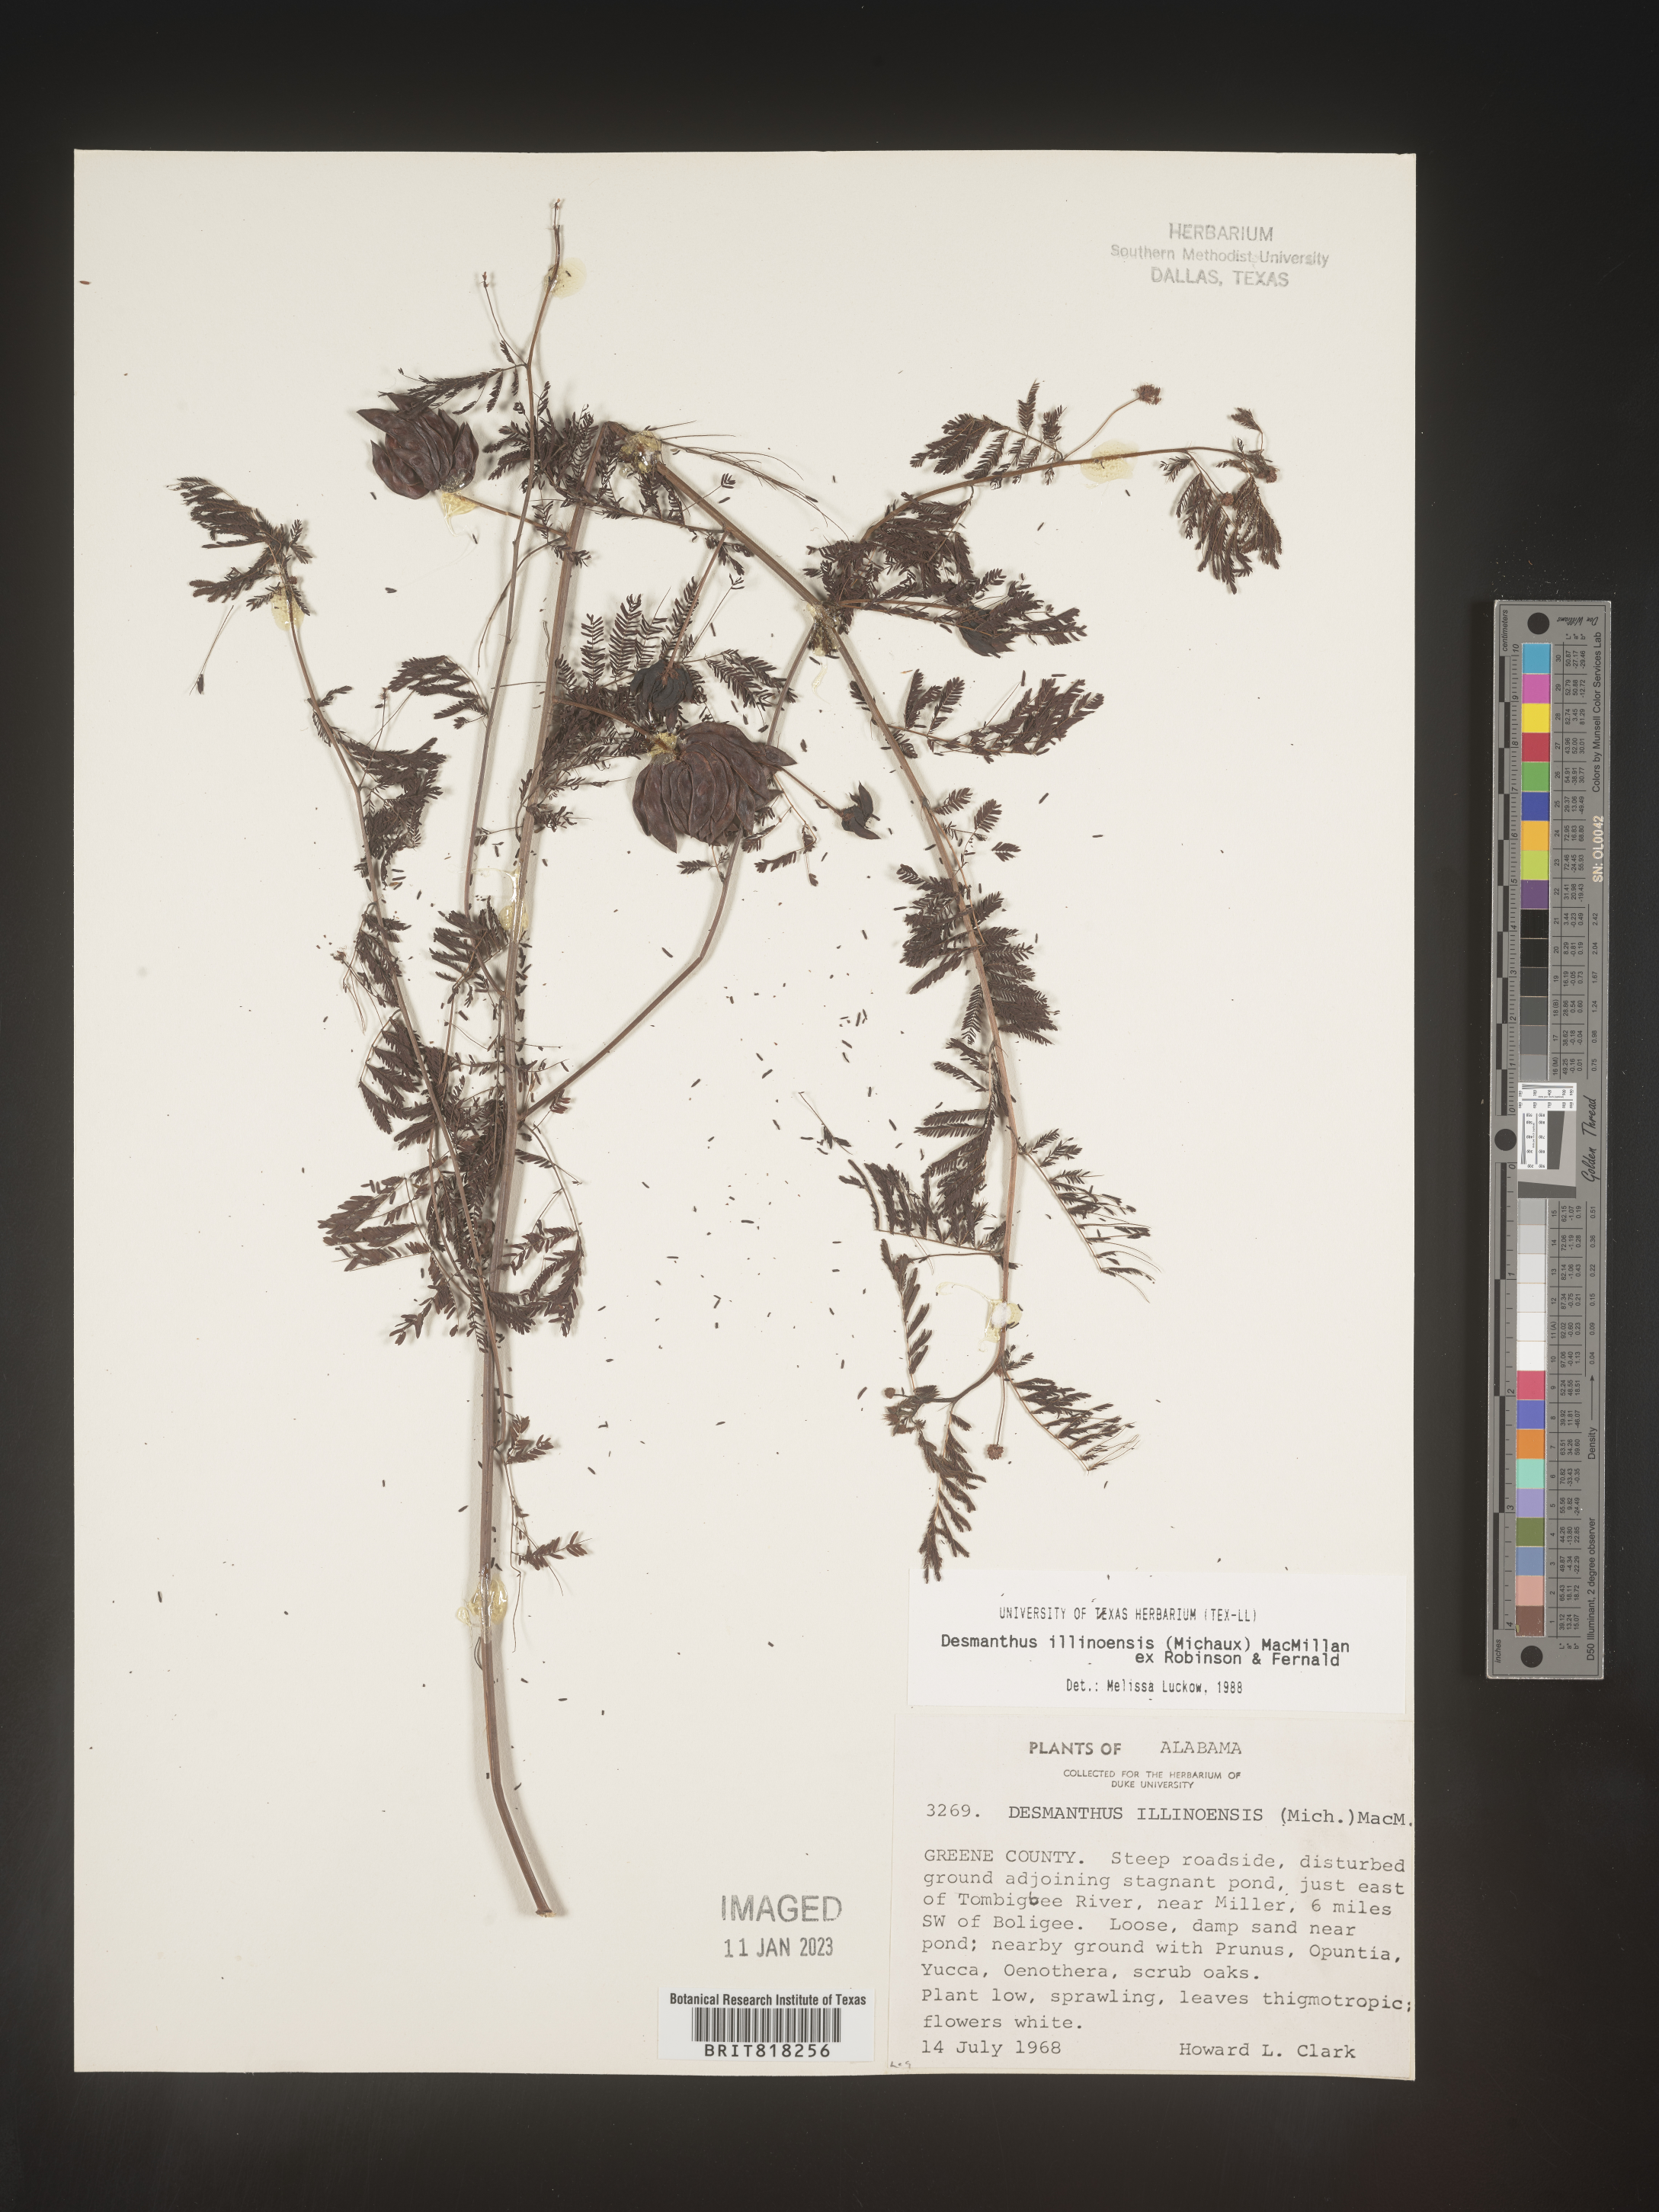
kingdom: Plantae
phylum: Tracheophyta
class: Magnoliopsida
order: Fabales
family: Fabaceae
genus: Desmanthus
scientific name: Desmanthus illinoensis
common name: Illinois bundle-flower
